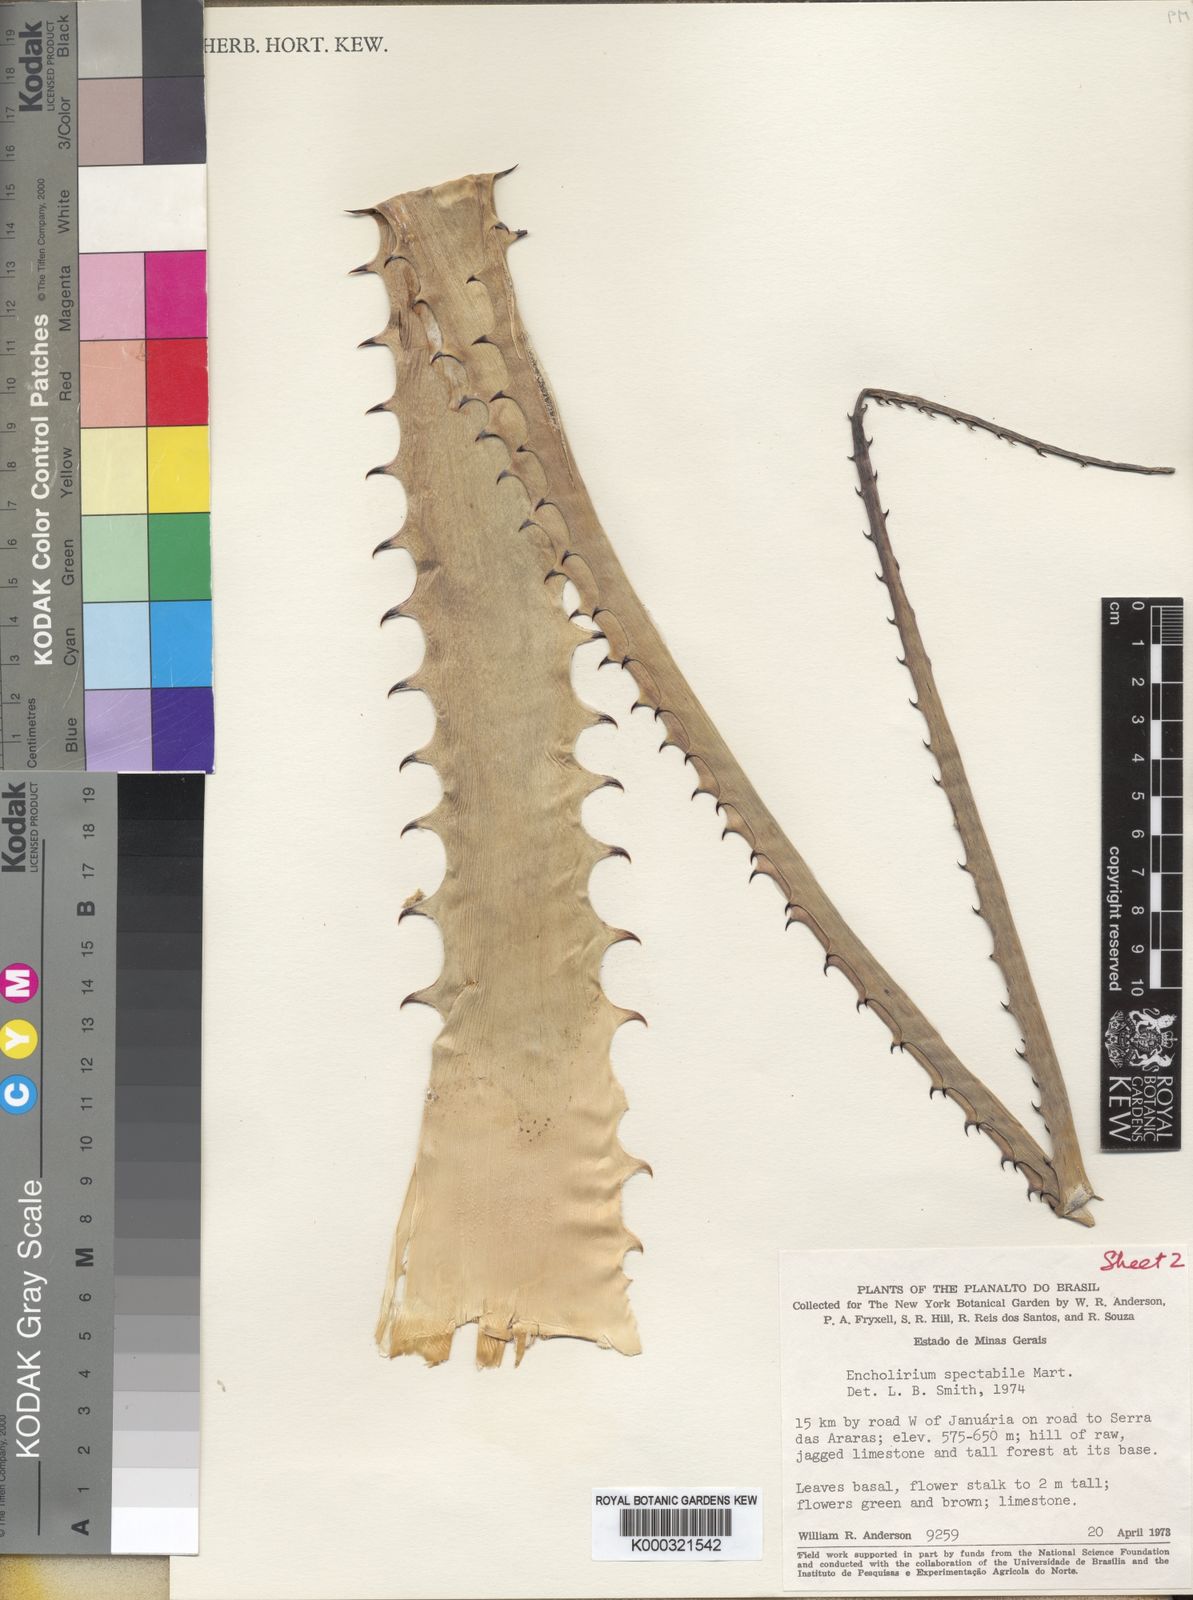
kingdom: Plantae
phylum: Tracheophyta
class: Liliopsida
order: Poales
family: Bromeliaceae
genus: Encholirium
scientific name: Encholirium luxor
